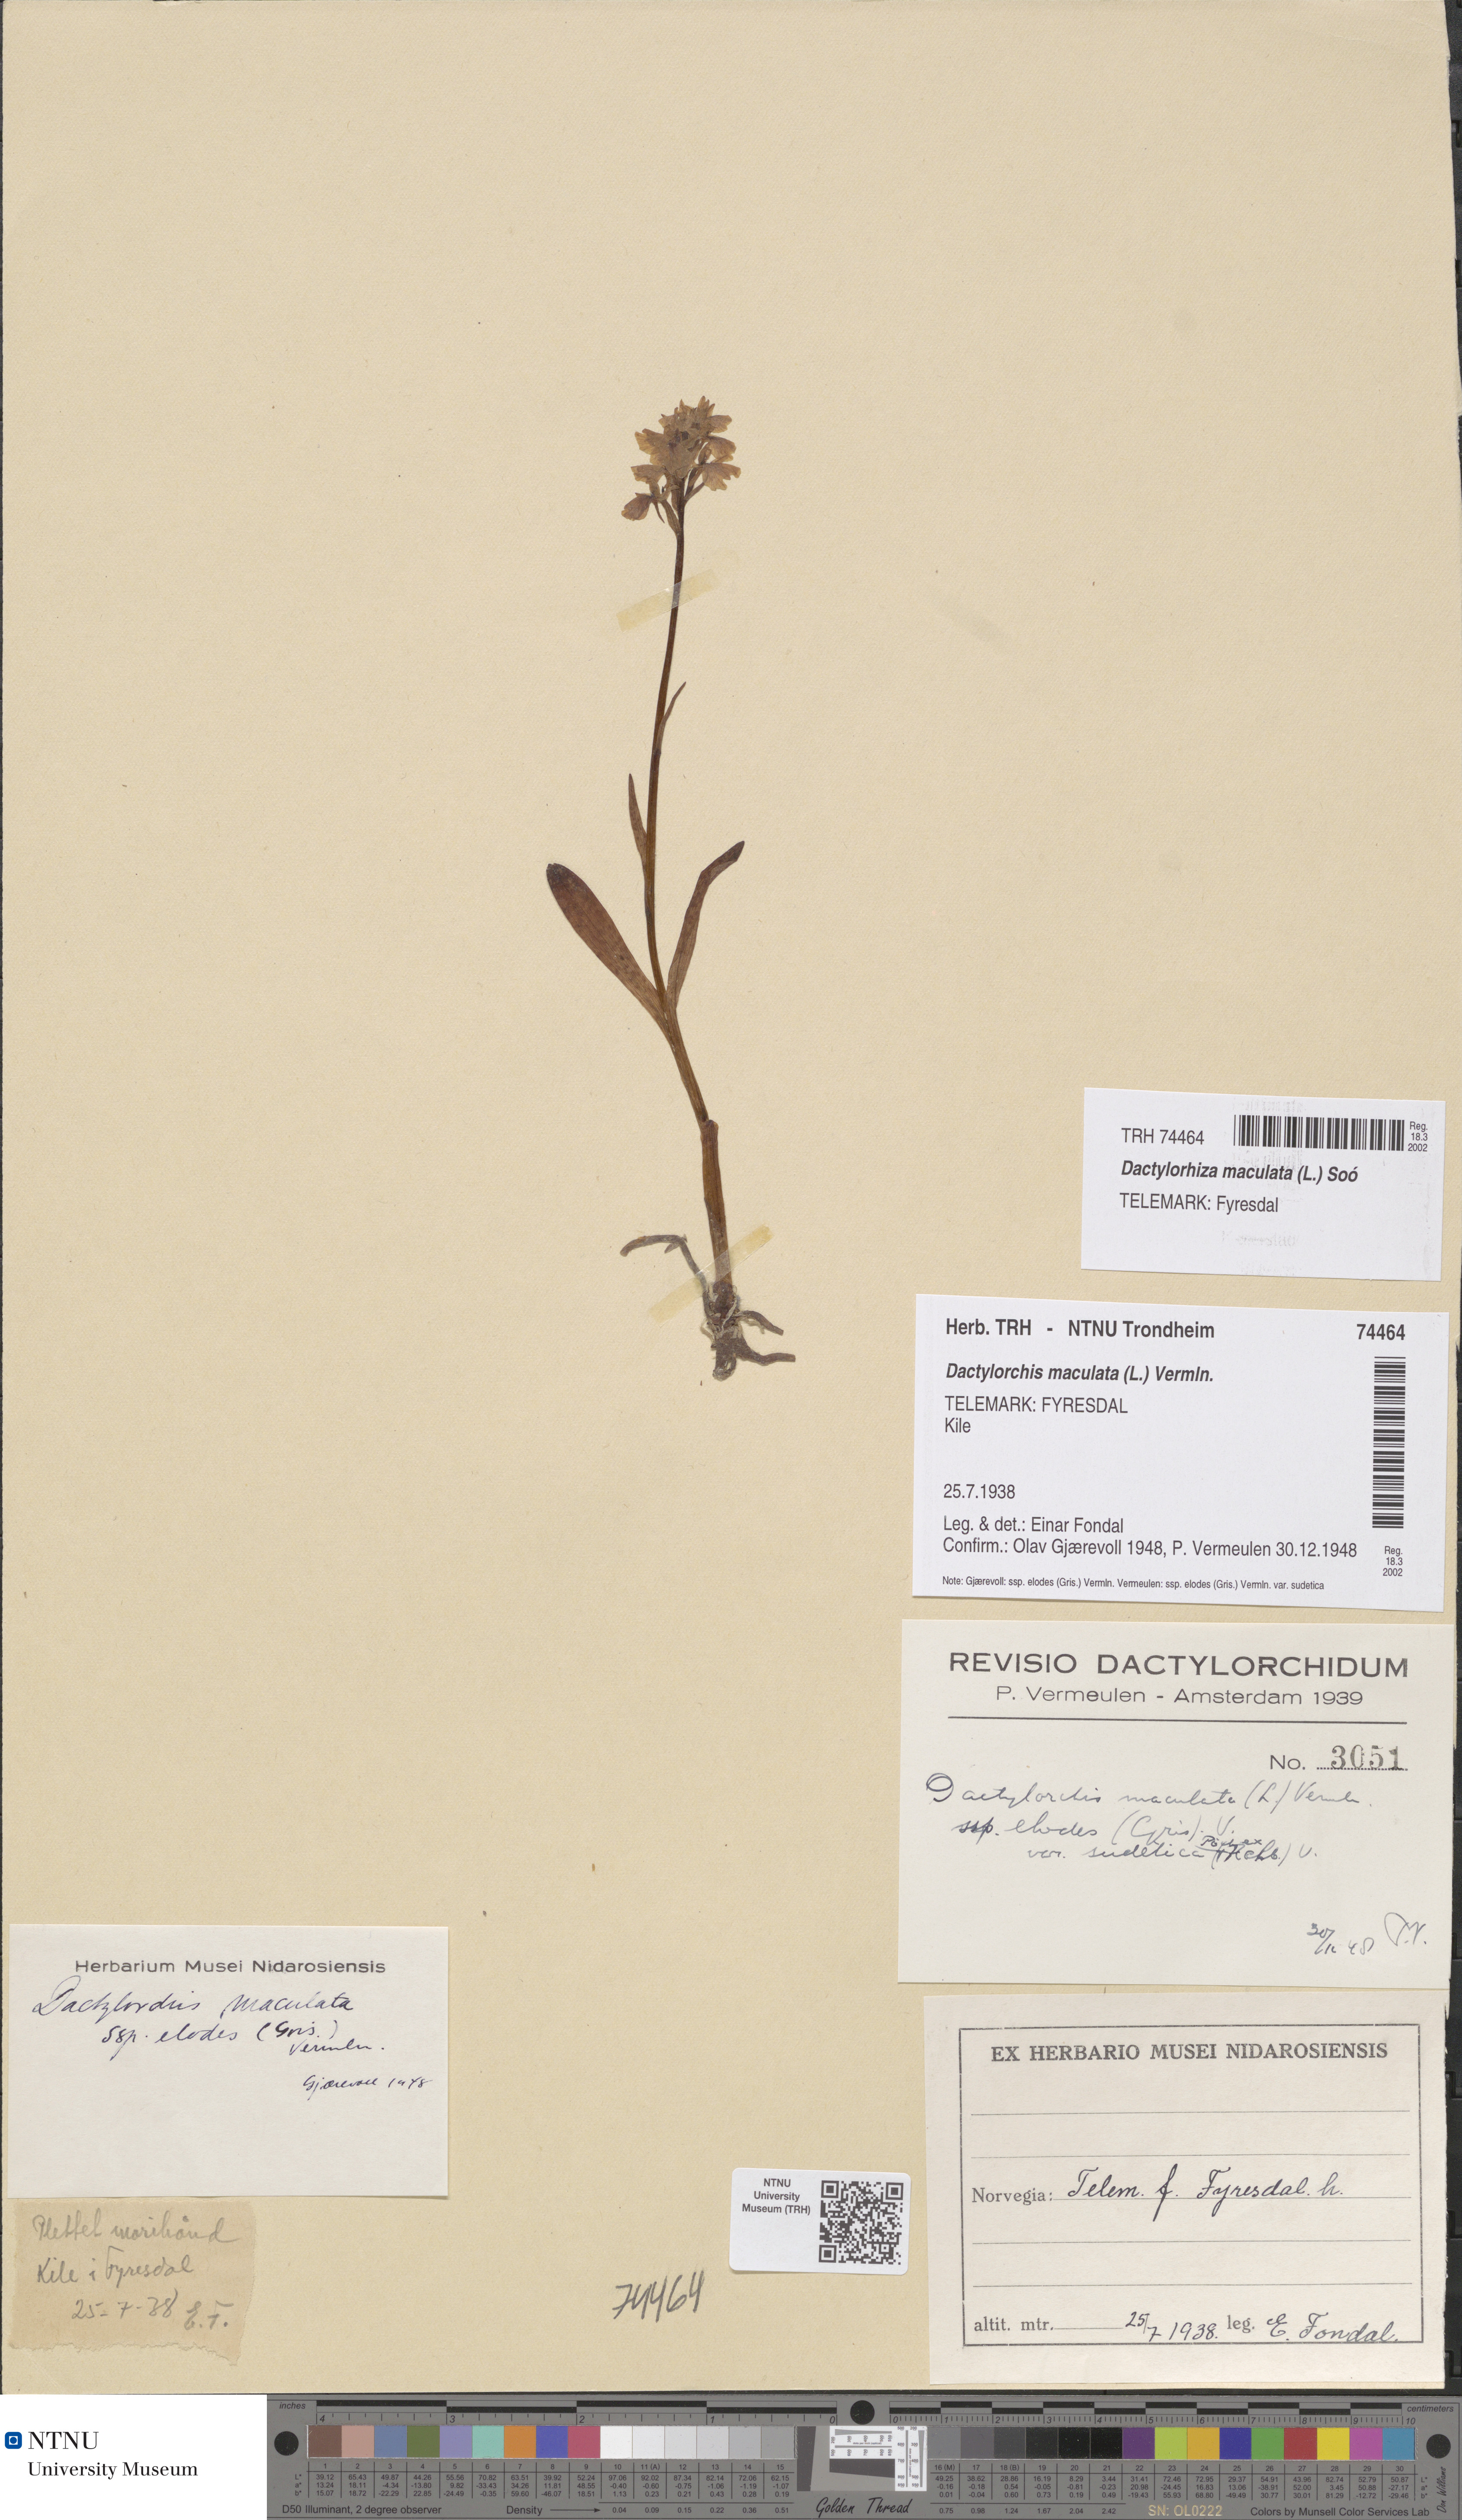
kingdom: Plantae
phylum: Tracheophyta
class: Liliopsida
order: Asparagales
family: Orchidaceae
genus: Dactylorhiza
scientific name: Dactylorhiza maculata
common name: Heath spotted-orchid
